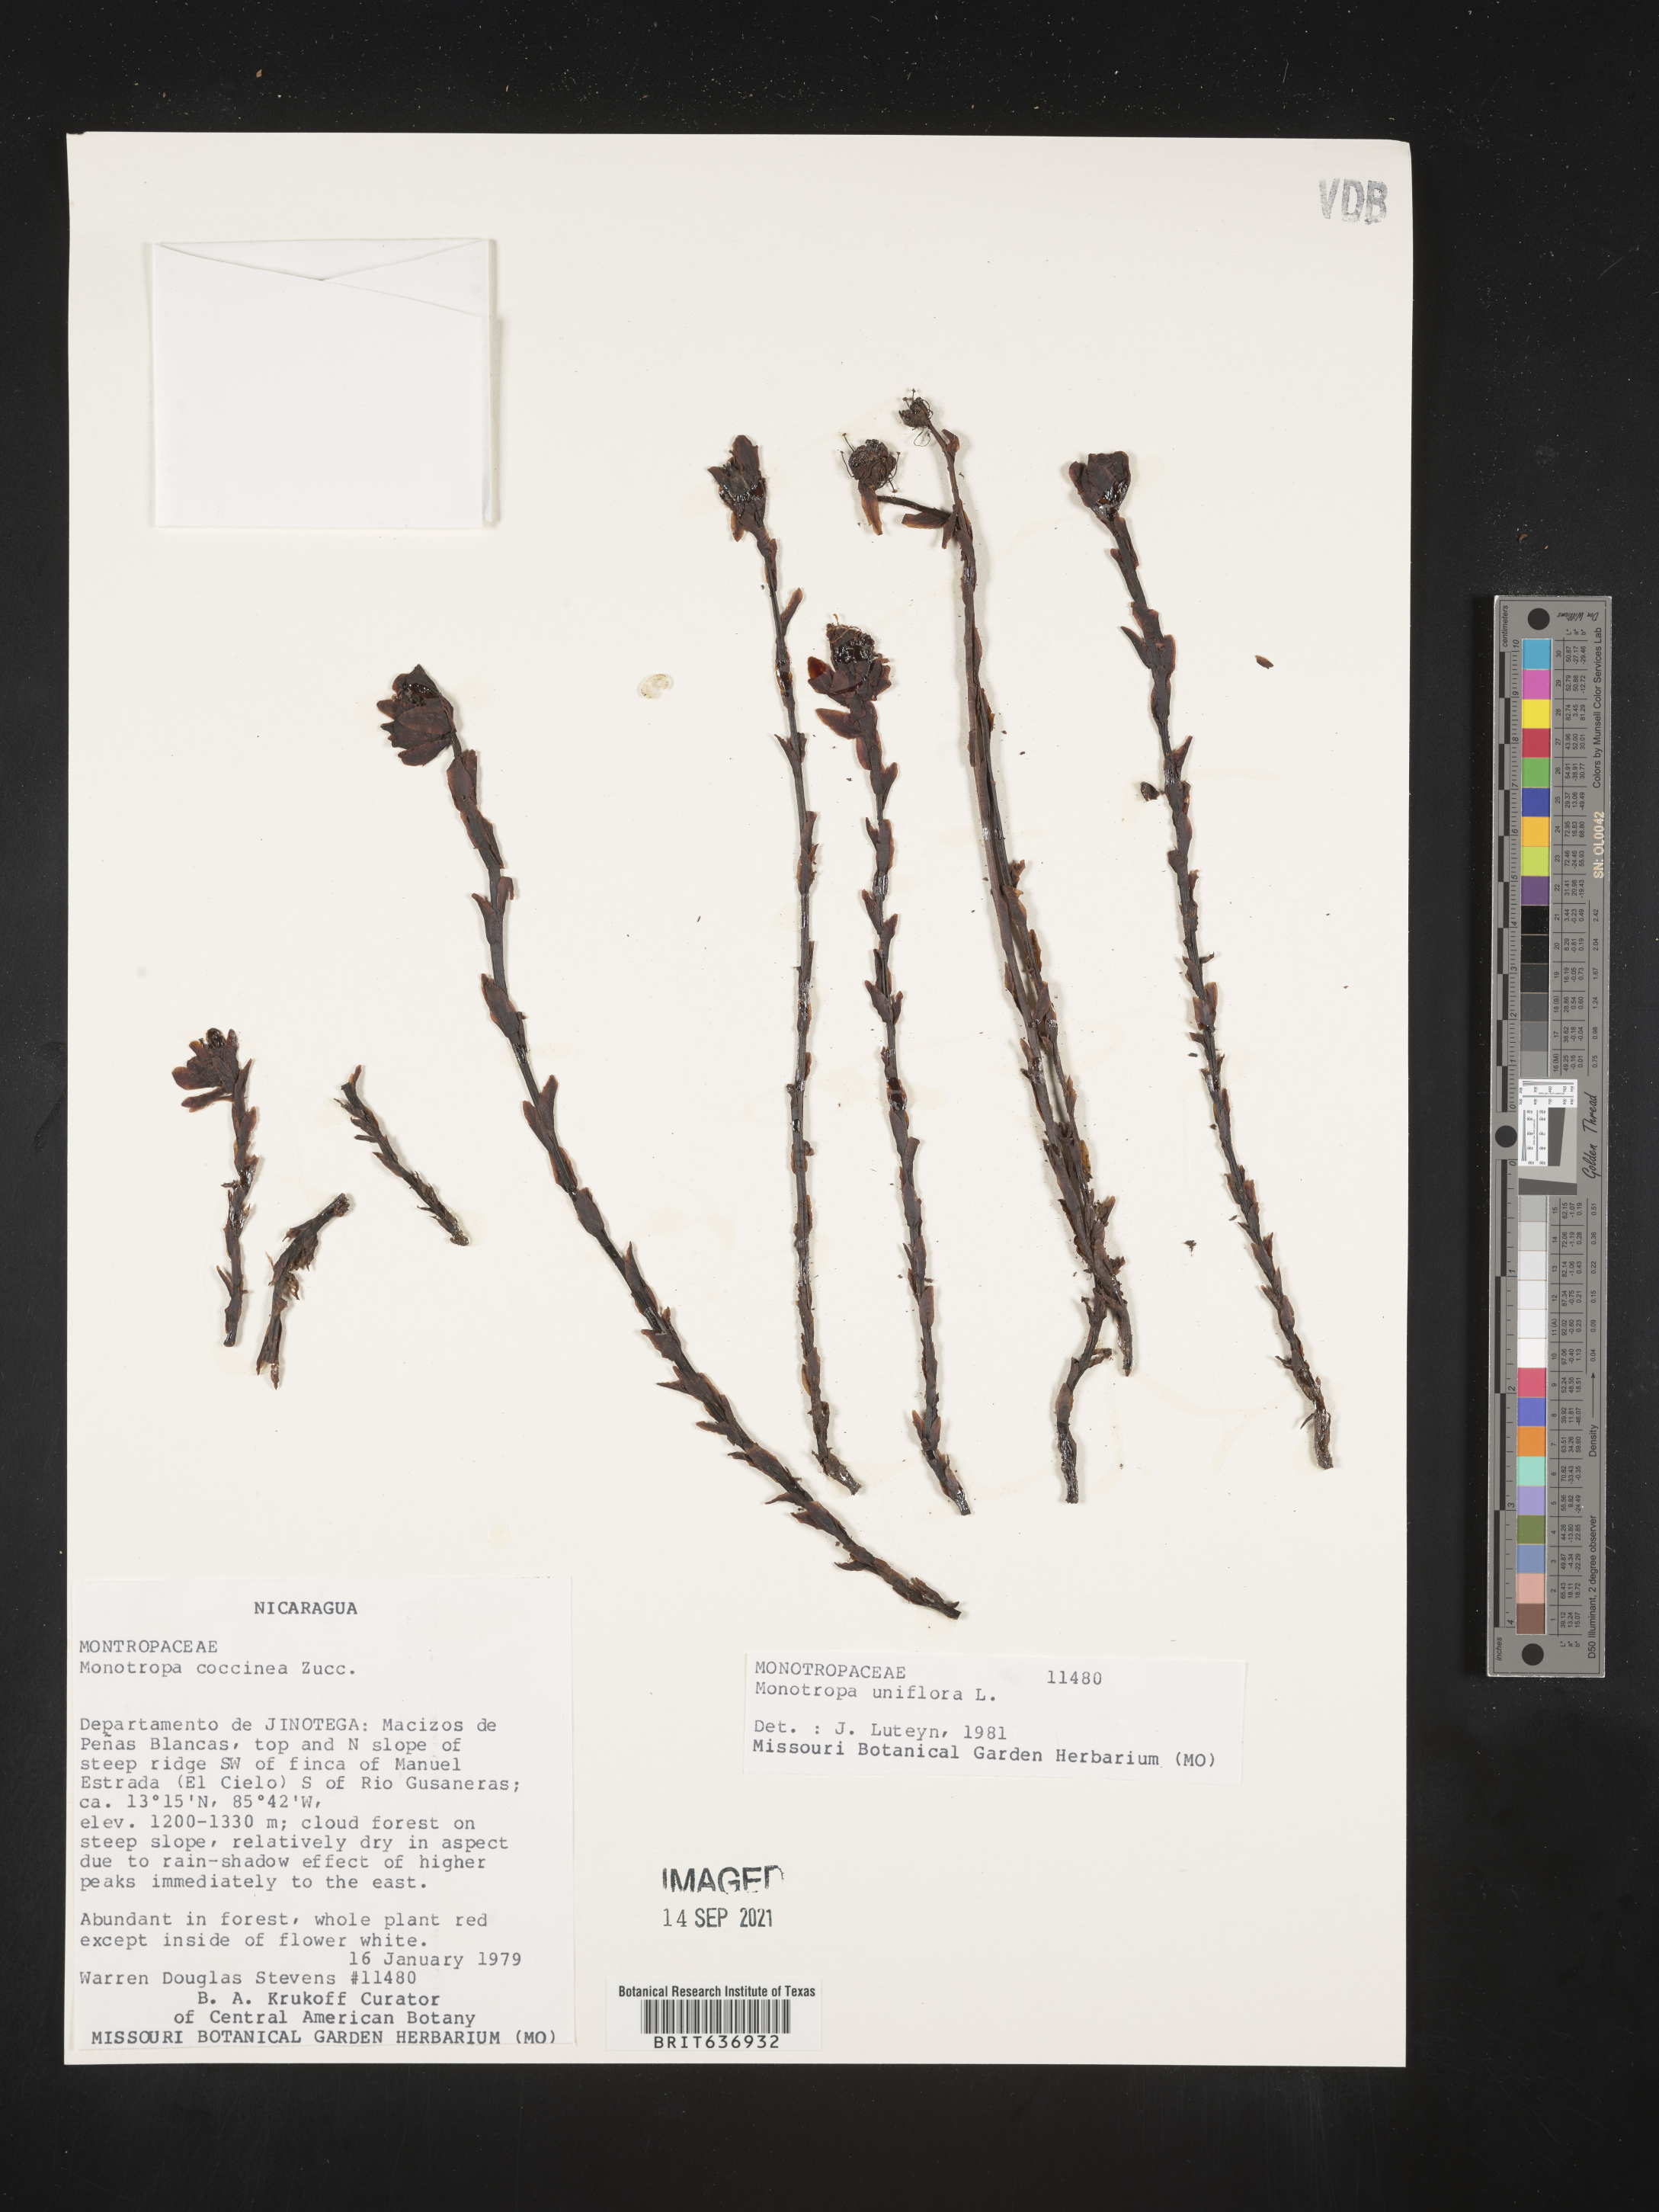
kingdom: Plantae
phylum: Tracheophyta
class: Magnoliopsida
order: Ericales
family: Ericaceae
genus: Monotropa
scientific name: Monotropa
